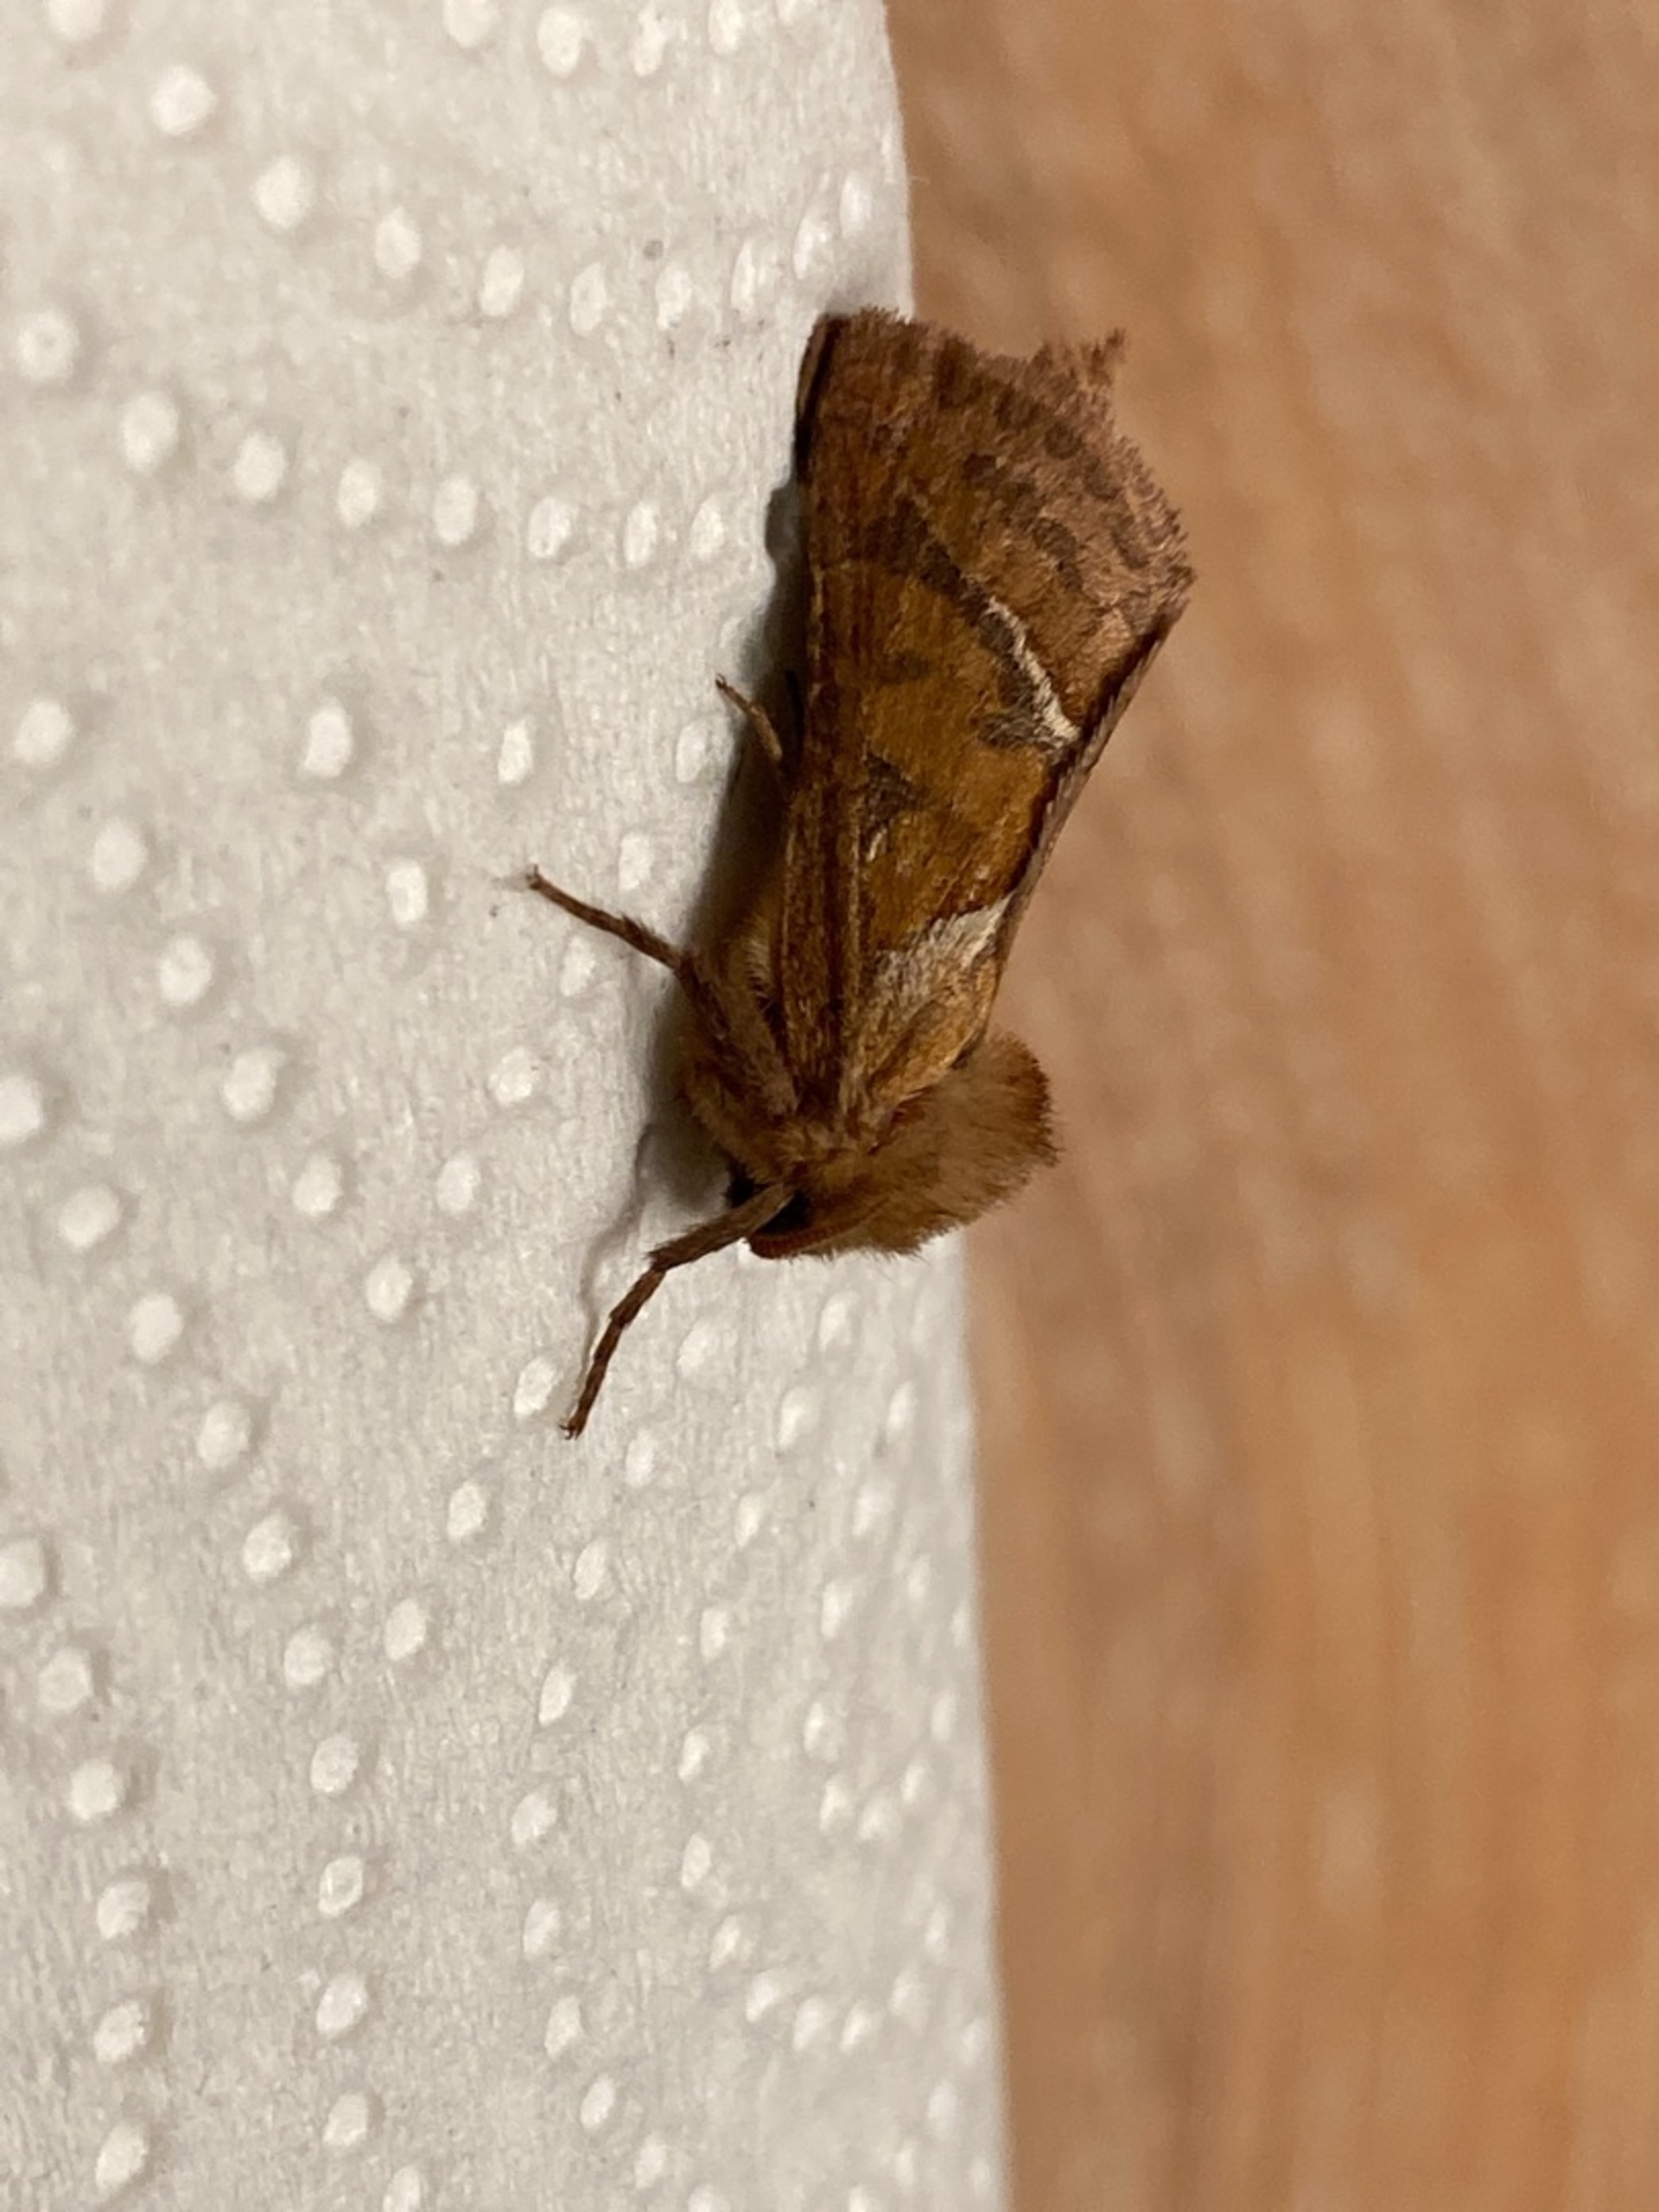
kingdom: Animalia
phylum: Arthropoda
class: Insecta
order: Lepidoptera
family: Hepialidae
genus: Triodia
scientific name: Triodia sylvina
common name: Skræpperodæder
